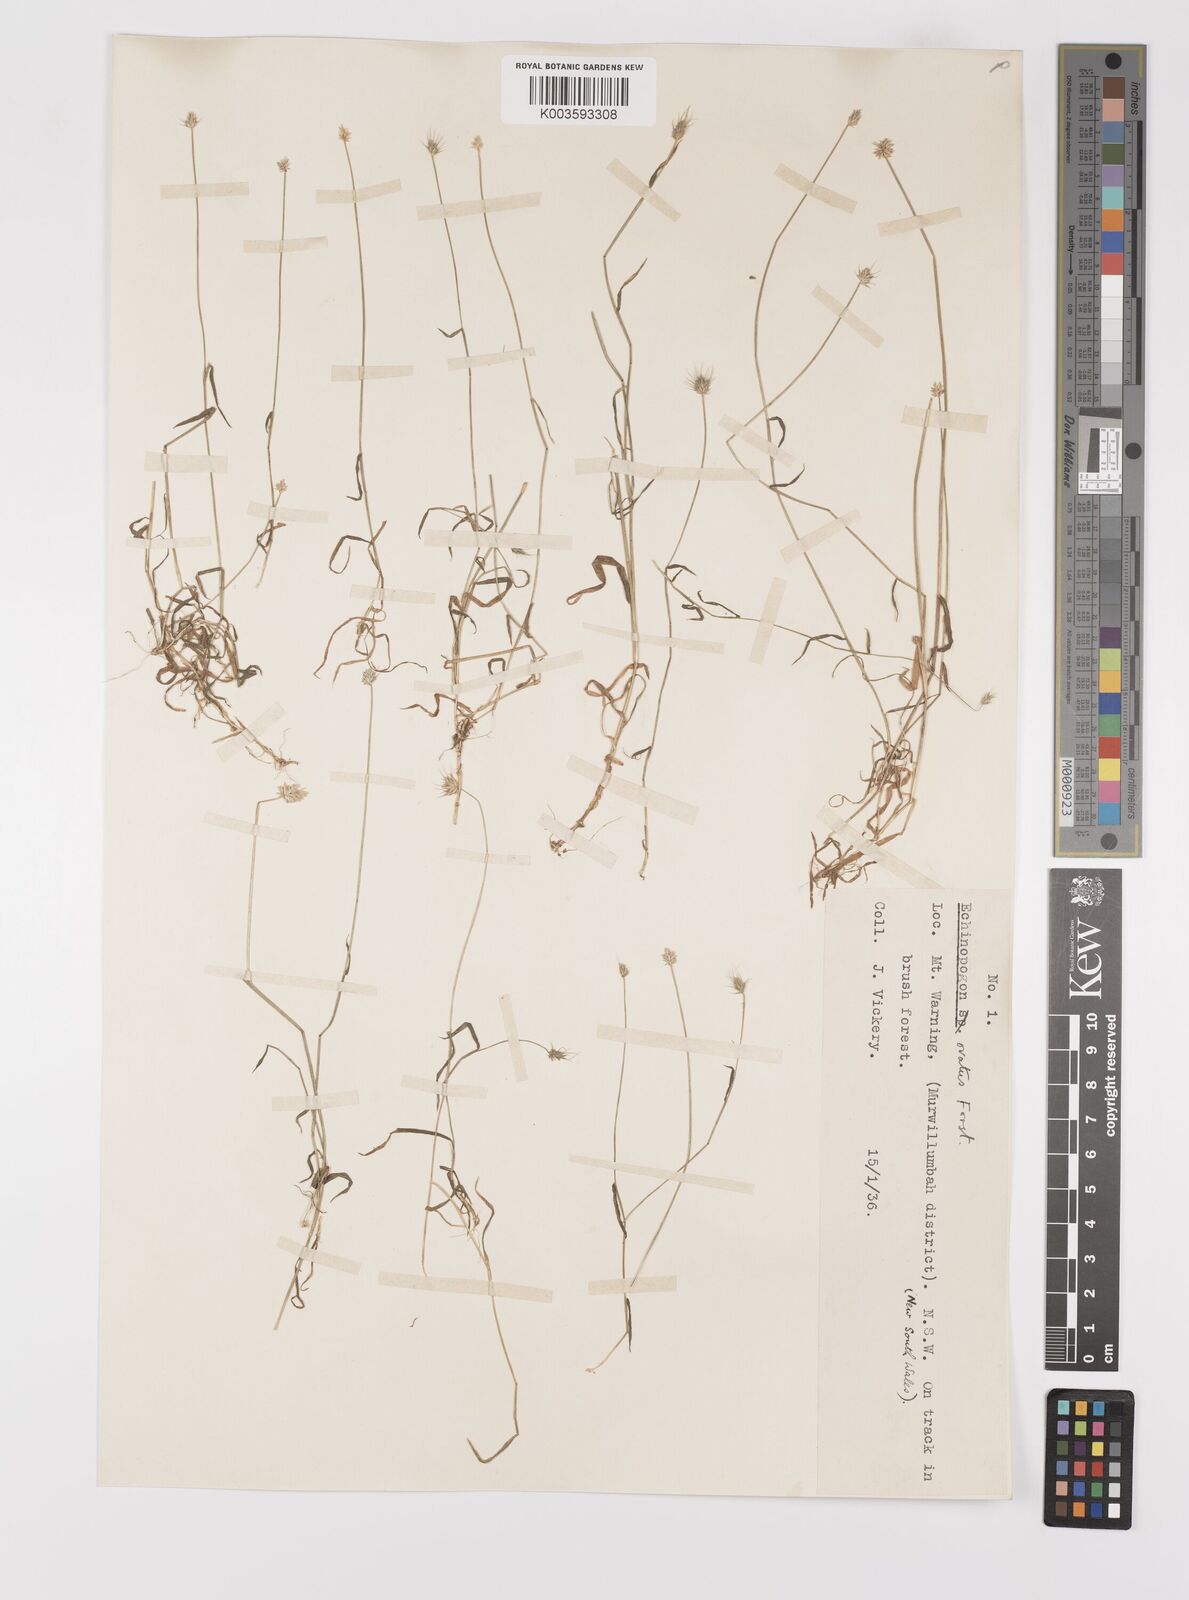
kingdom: Plantae
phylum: Tracheophyta
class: Liliopsida
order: Poales
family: Poaceae
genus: Echinopogon
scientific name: Echinopogon ovatus
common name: Hedgehog-grass
